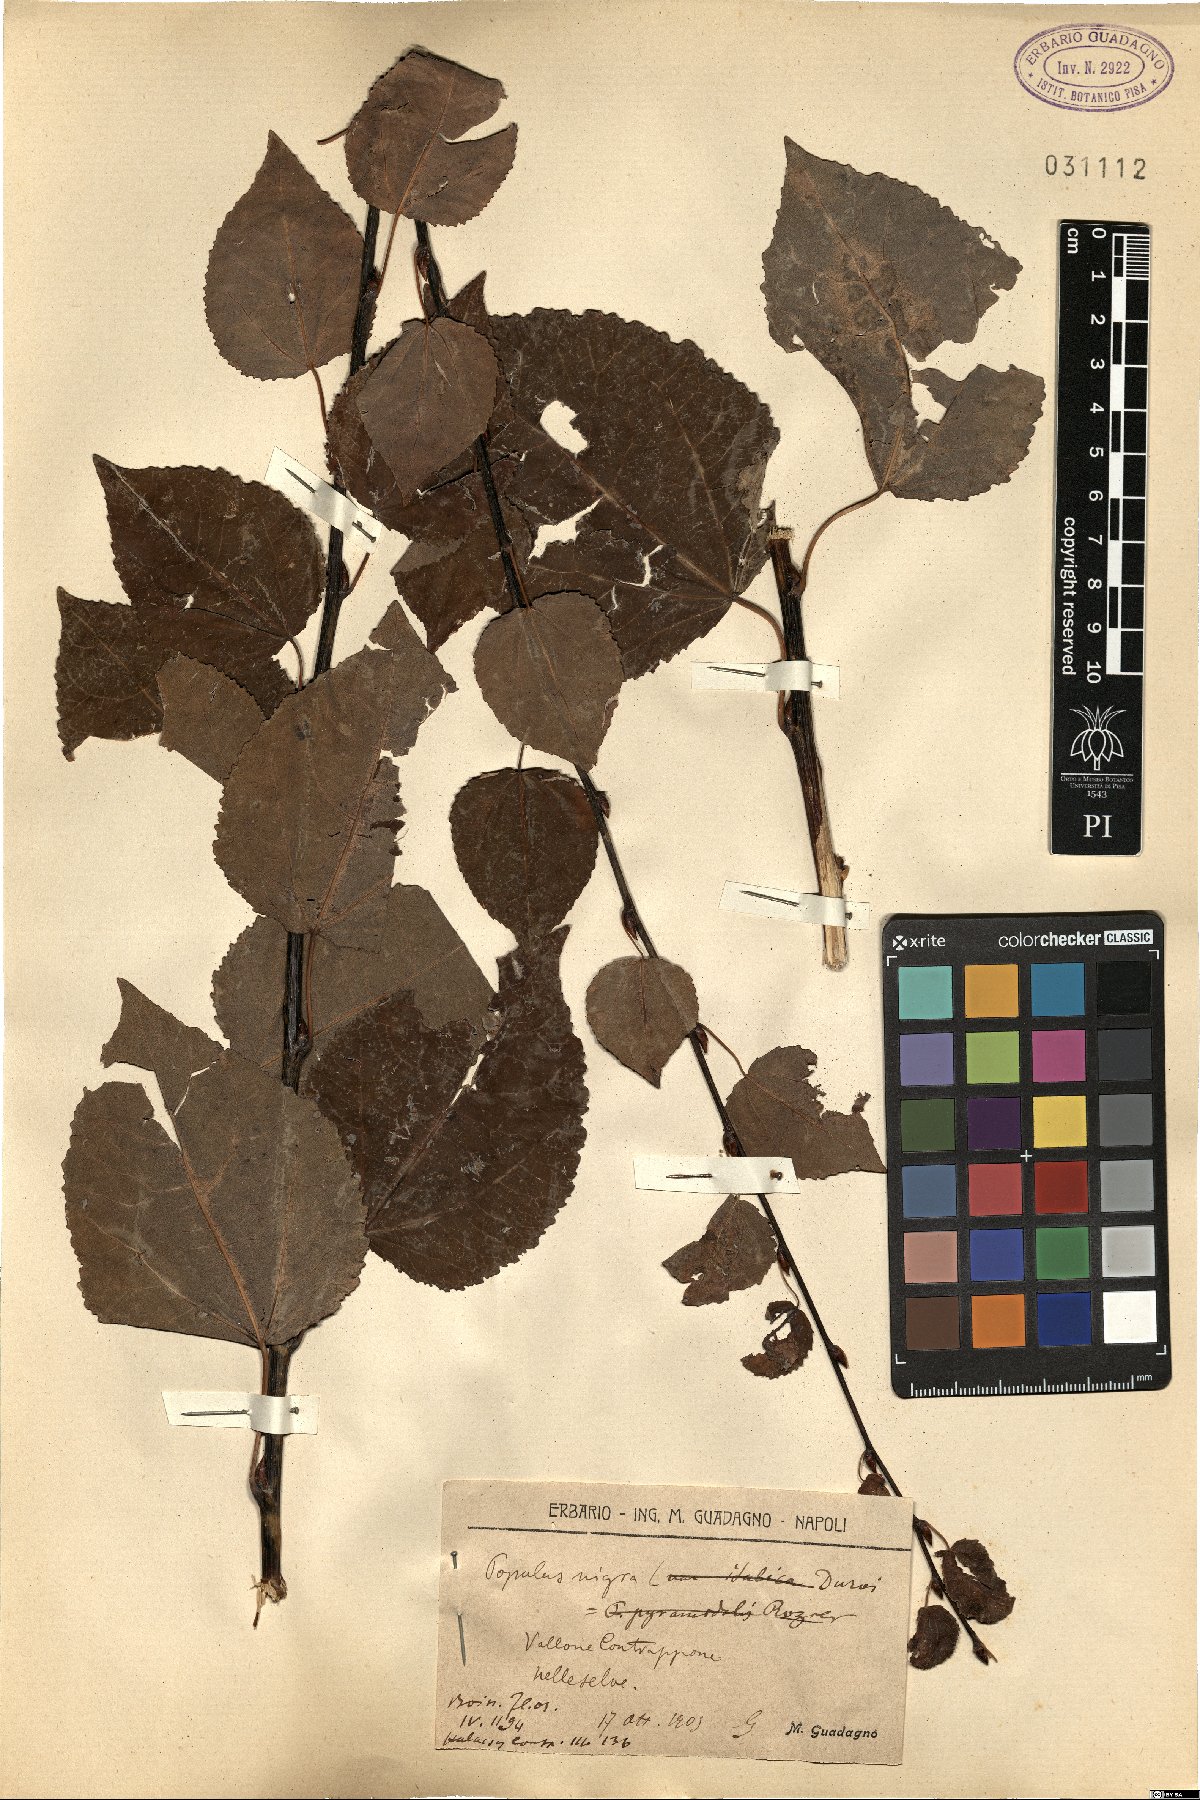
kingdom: Plantae
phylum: Tracheophyta
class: Magnoliopsida
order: Malpighiales
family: Salicaceae
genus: Populus
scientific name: Populus nigra
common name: Black poplar
